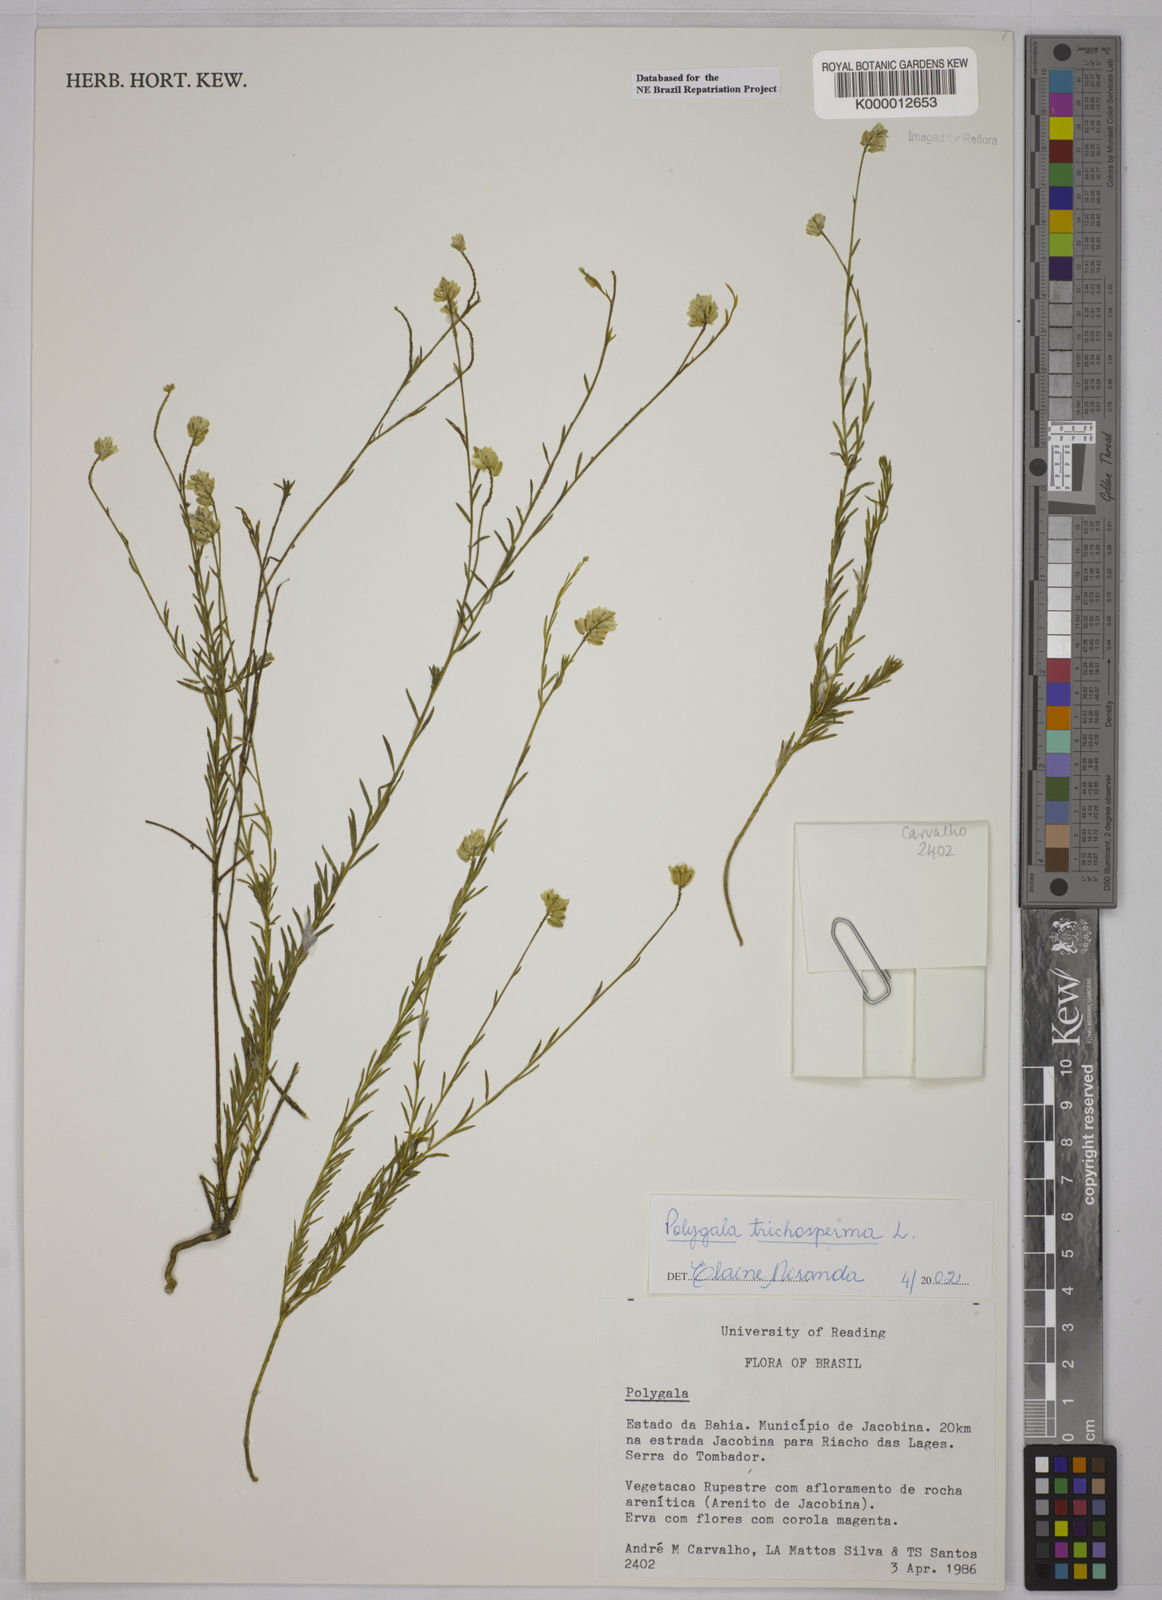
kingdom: Plantae
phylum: Tracheophyta
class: Magnoliopsida
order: Fabales
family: Polygalaceae
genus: Polygala
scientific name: Polygala
